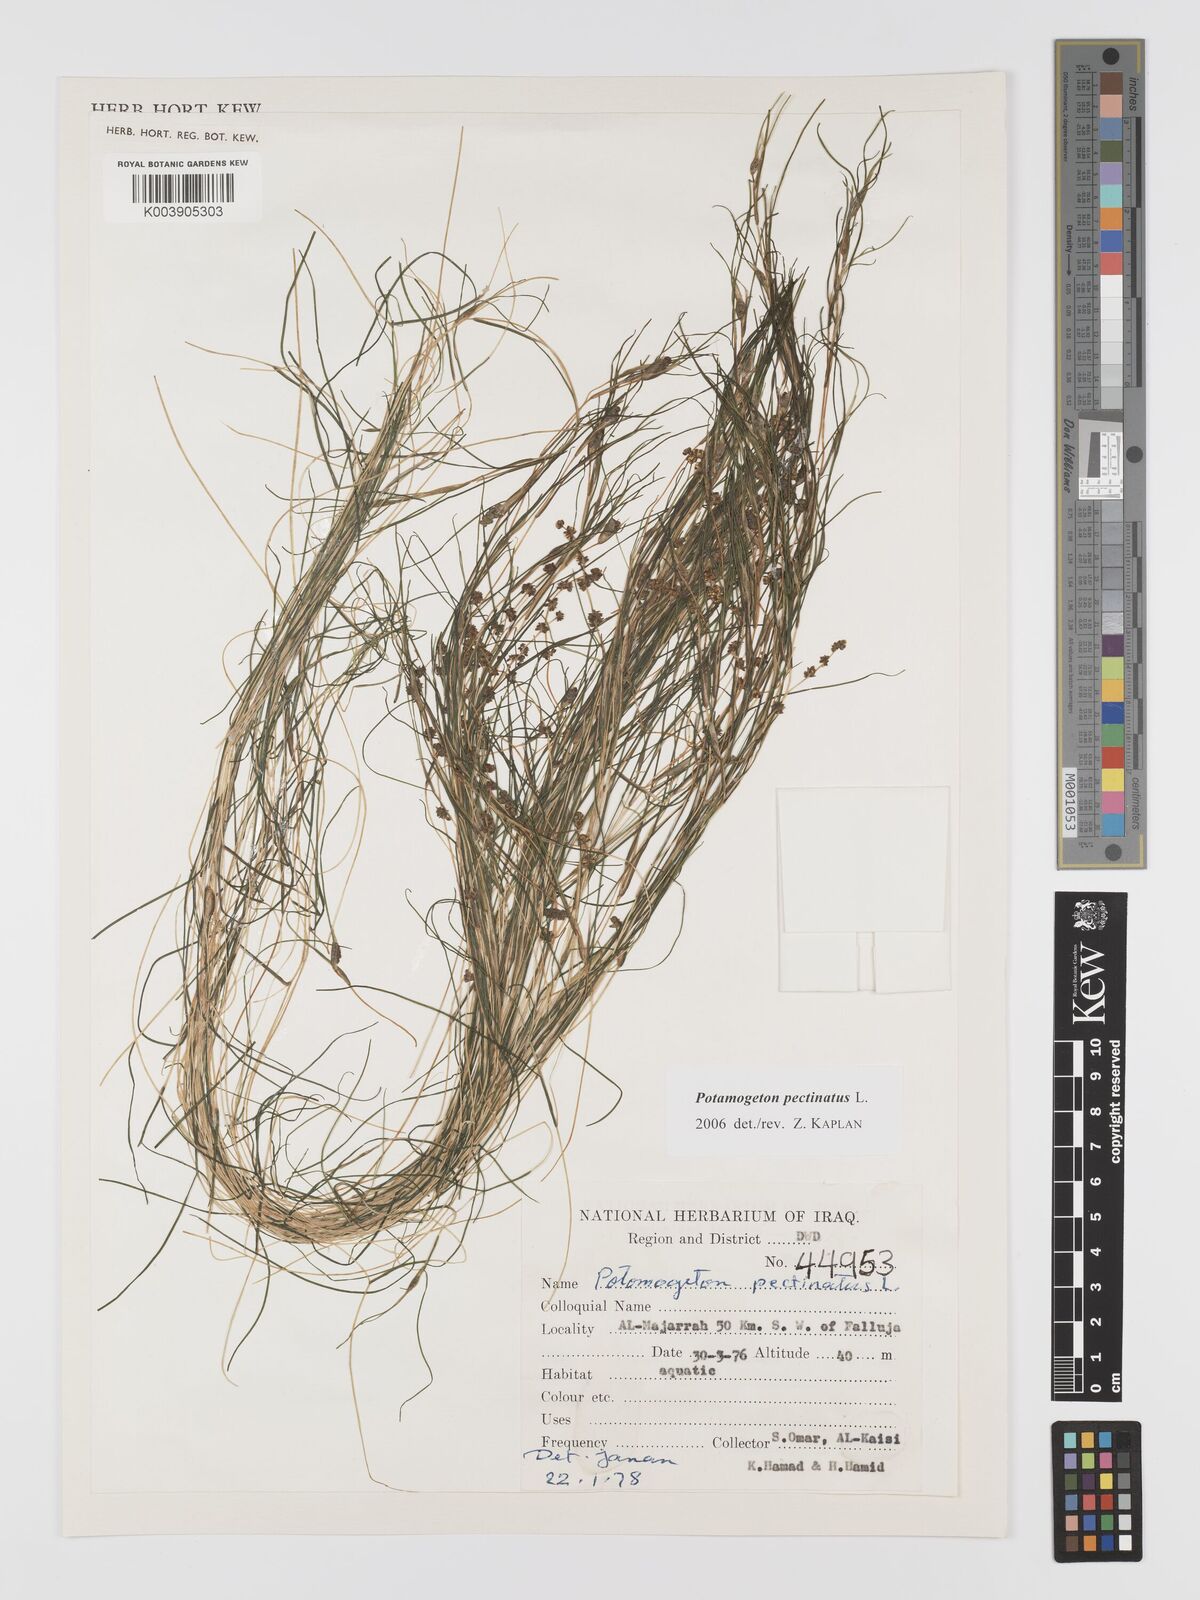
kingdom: Plantae
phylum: Tracheophyta
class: Liliopsida
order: Alismatales
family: Potamogetonaceae
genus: Stuckenia
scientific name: Stuckenia pectinata
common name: Sago pondweed
